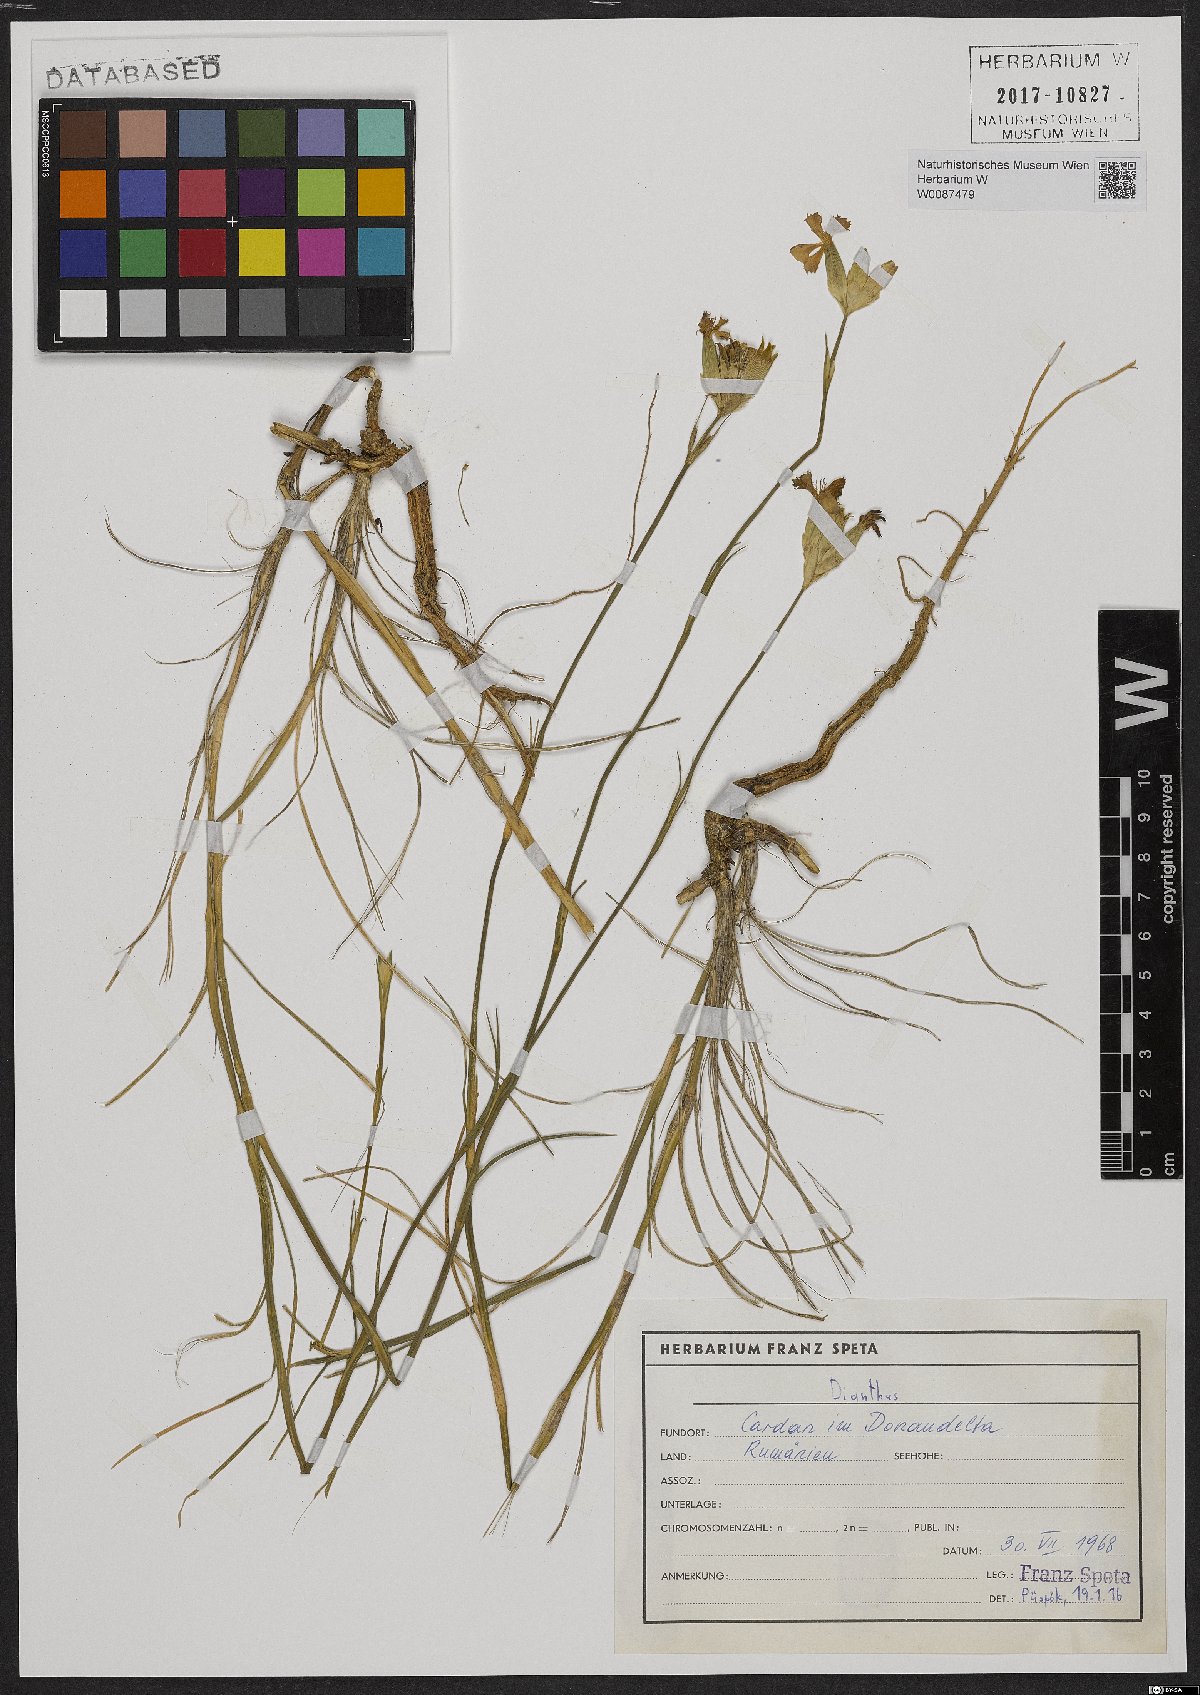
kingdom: Plantae
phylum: Tracheophyta
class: Magnoliopsida
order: Caryophyllales
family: Caryophyllaceae
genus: Dianthus
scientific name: Dianthus
